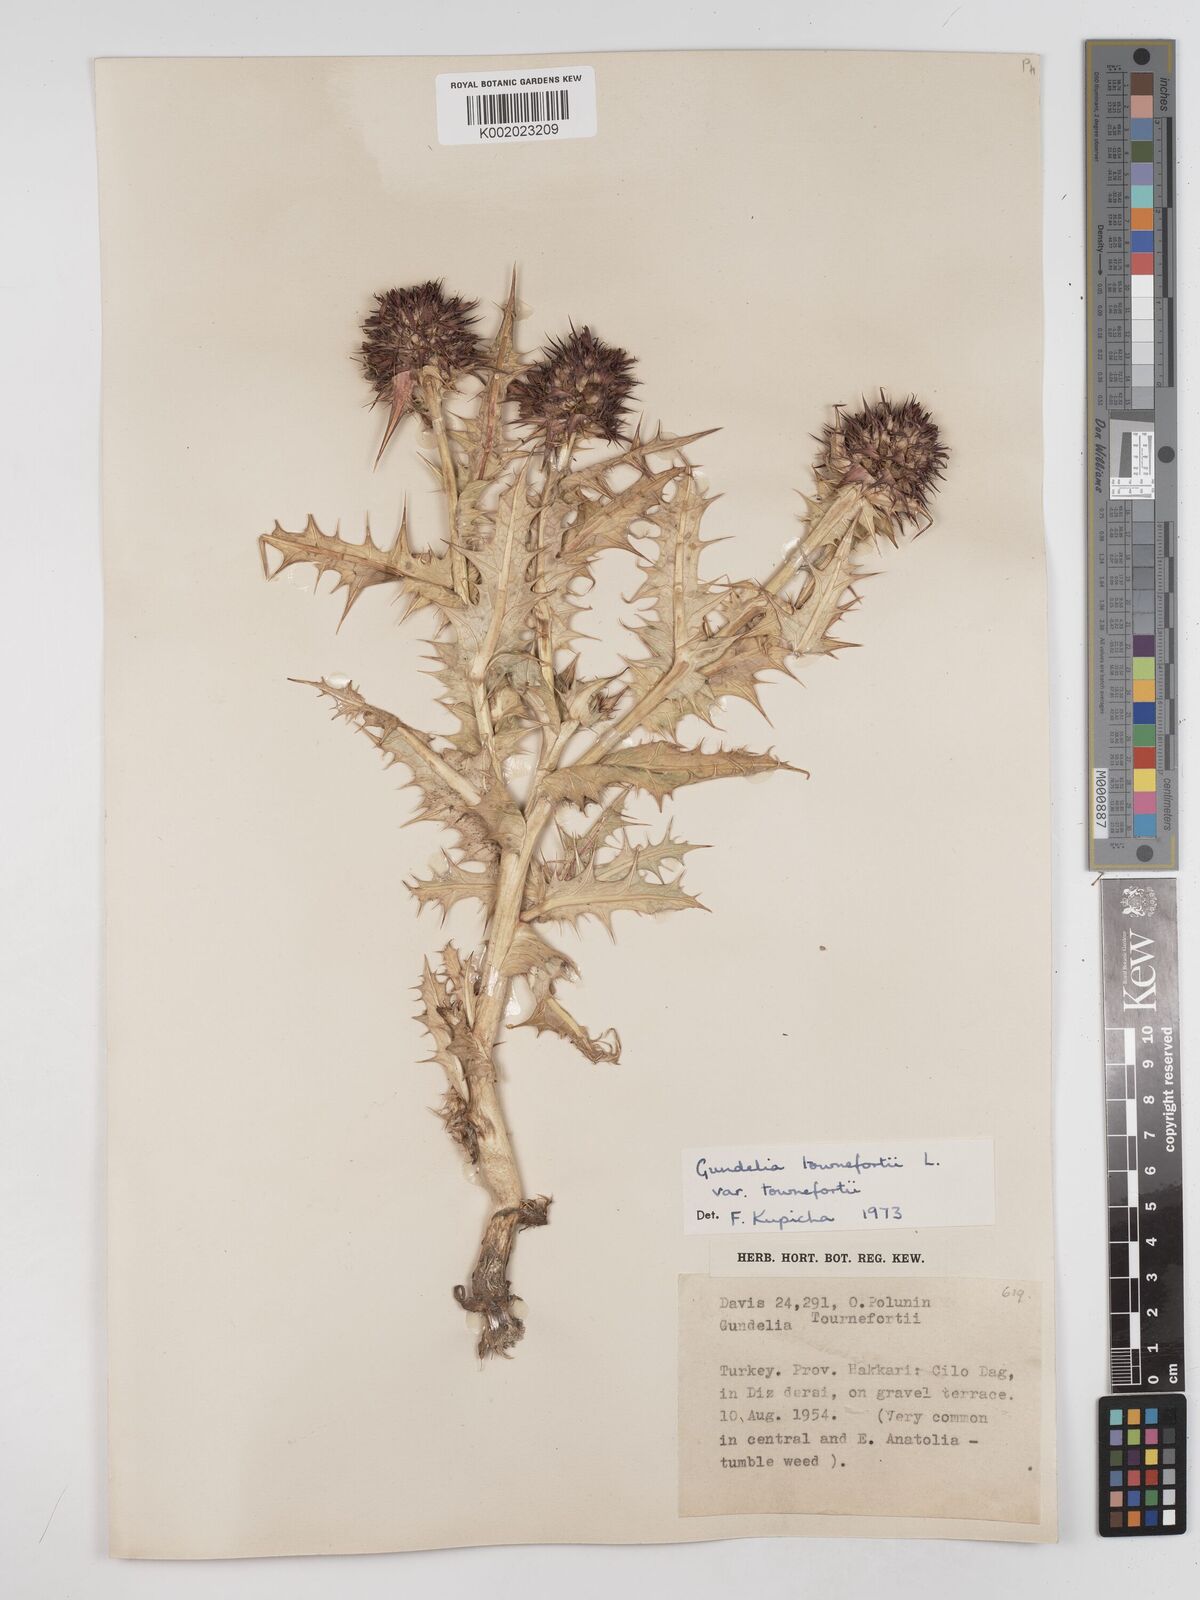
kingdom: Plantae
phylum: Tracheophyta
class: Magnoliopsida
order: Asterales
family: Asteraceae
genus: Gundelia
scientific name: Gundelia tournefortii
